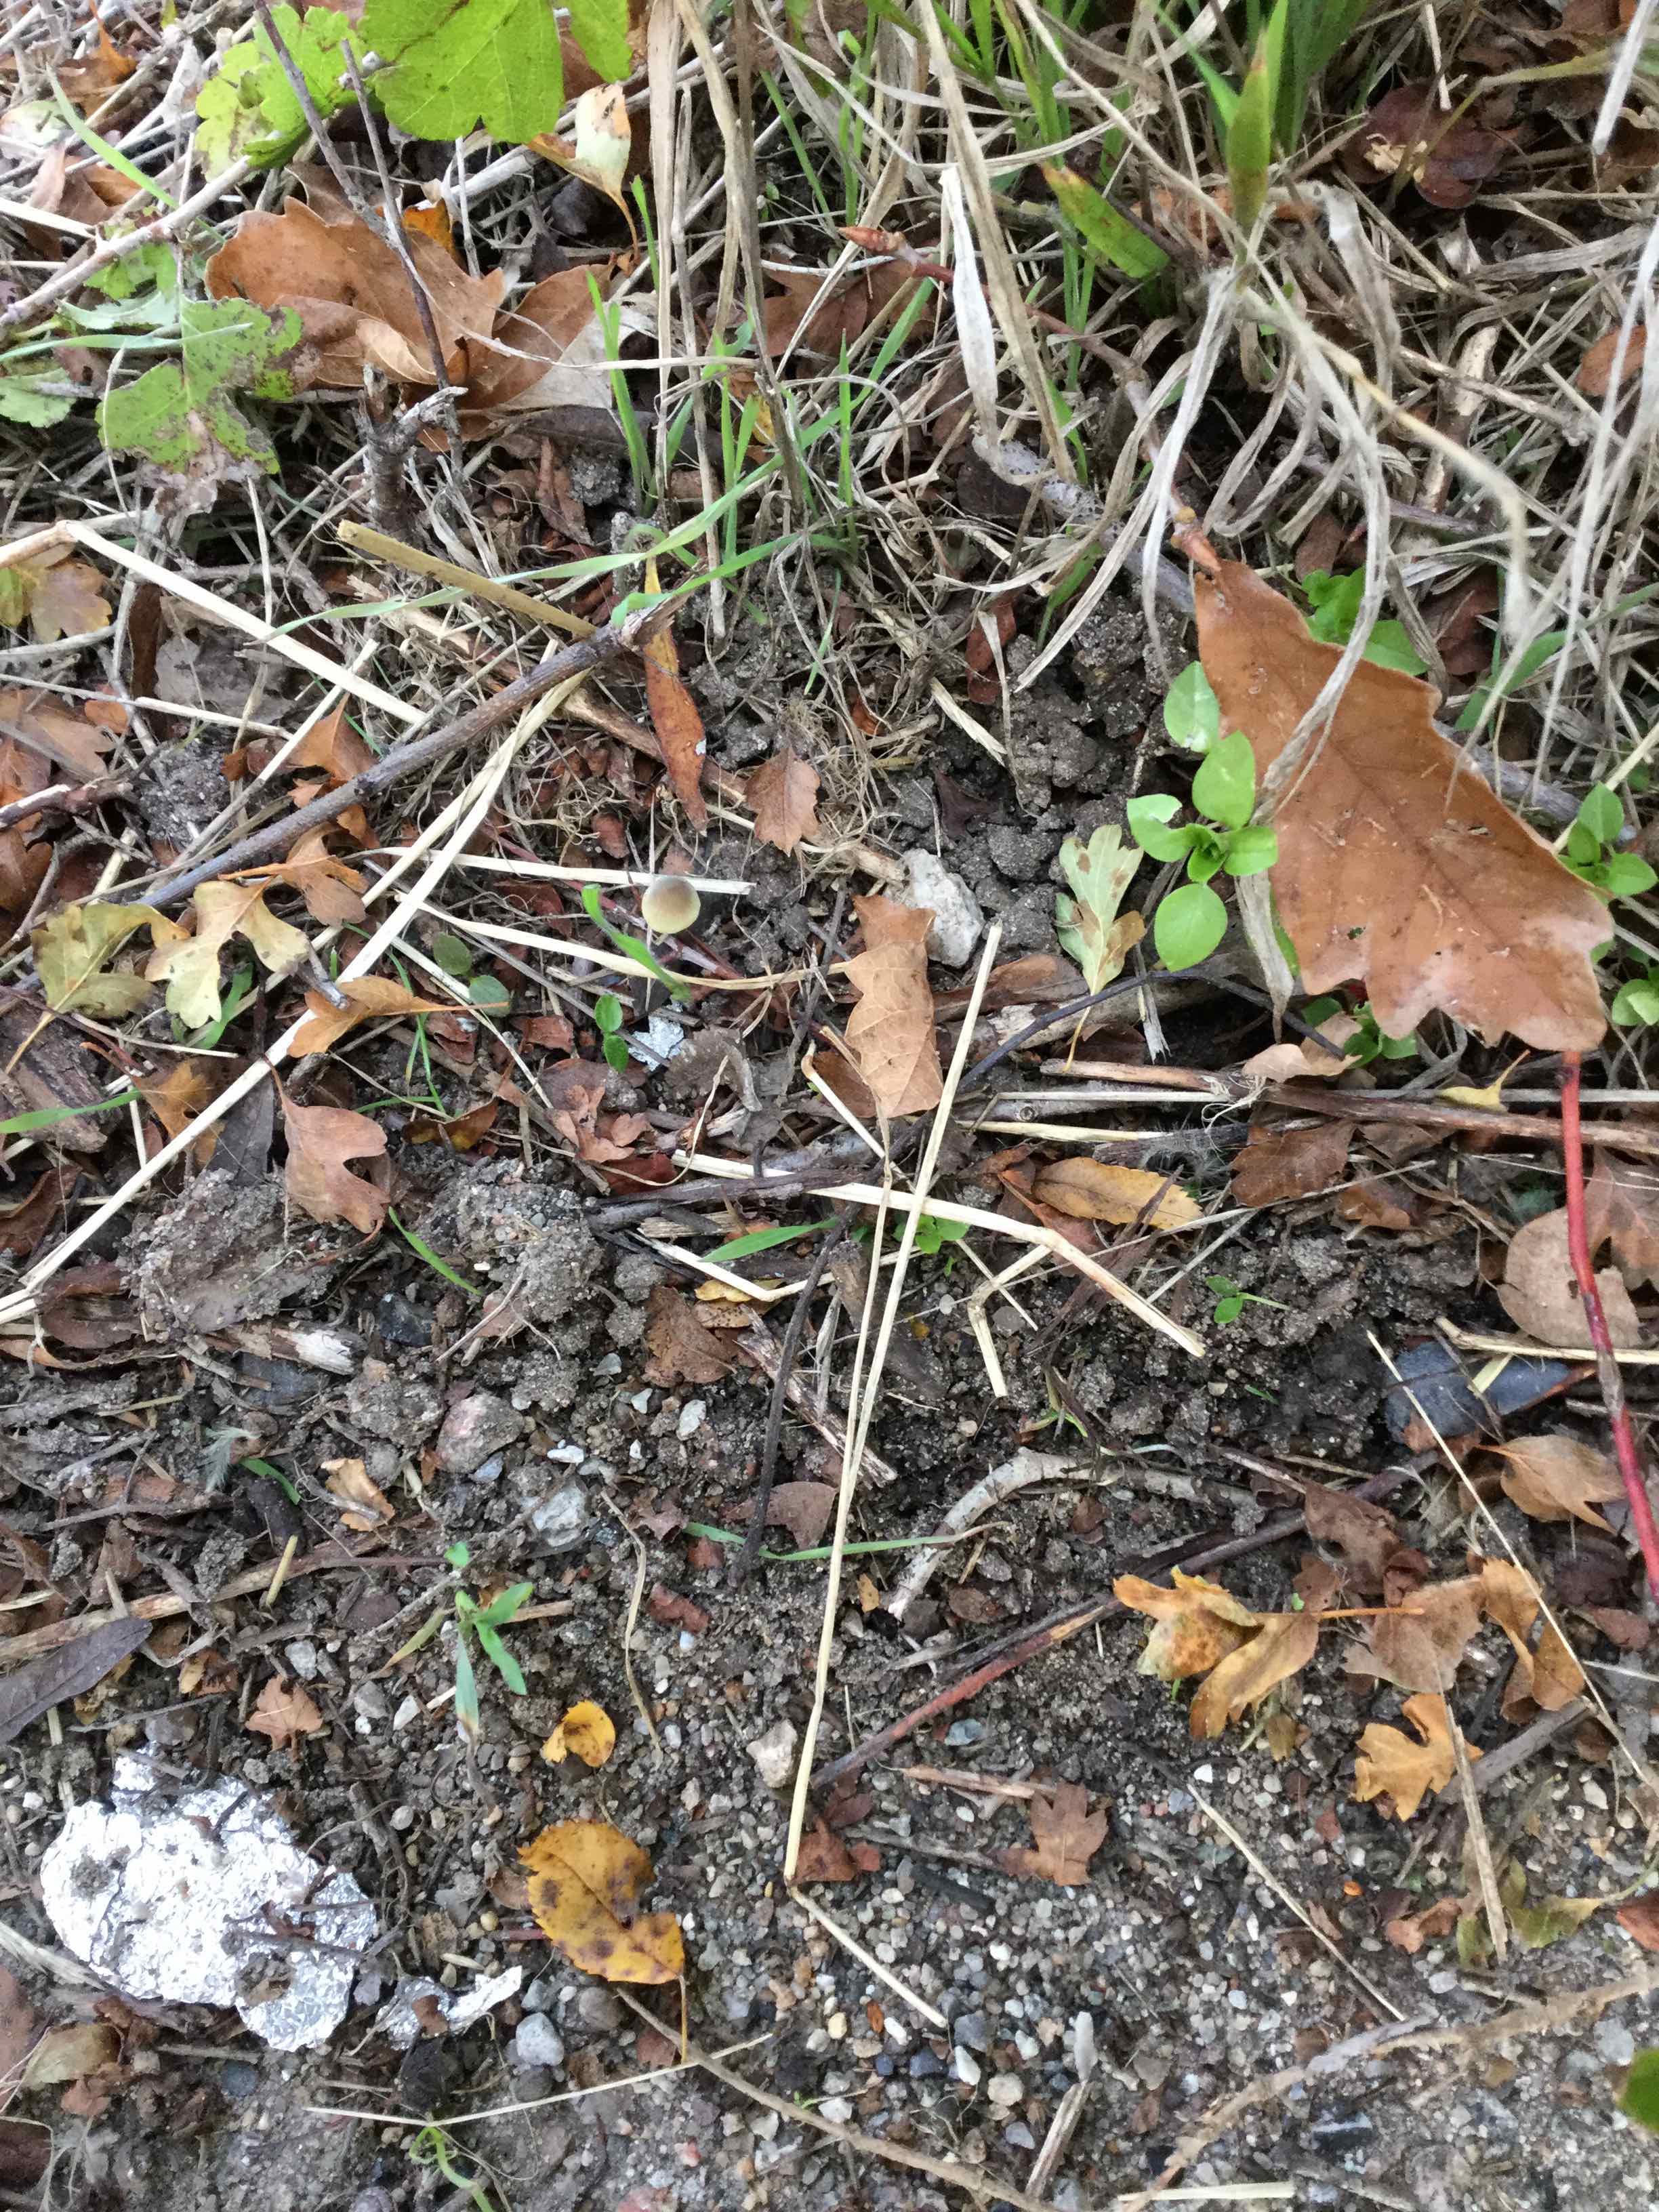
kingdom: Fungi
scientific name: Fungi
